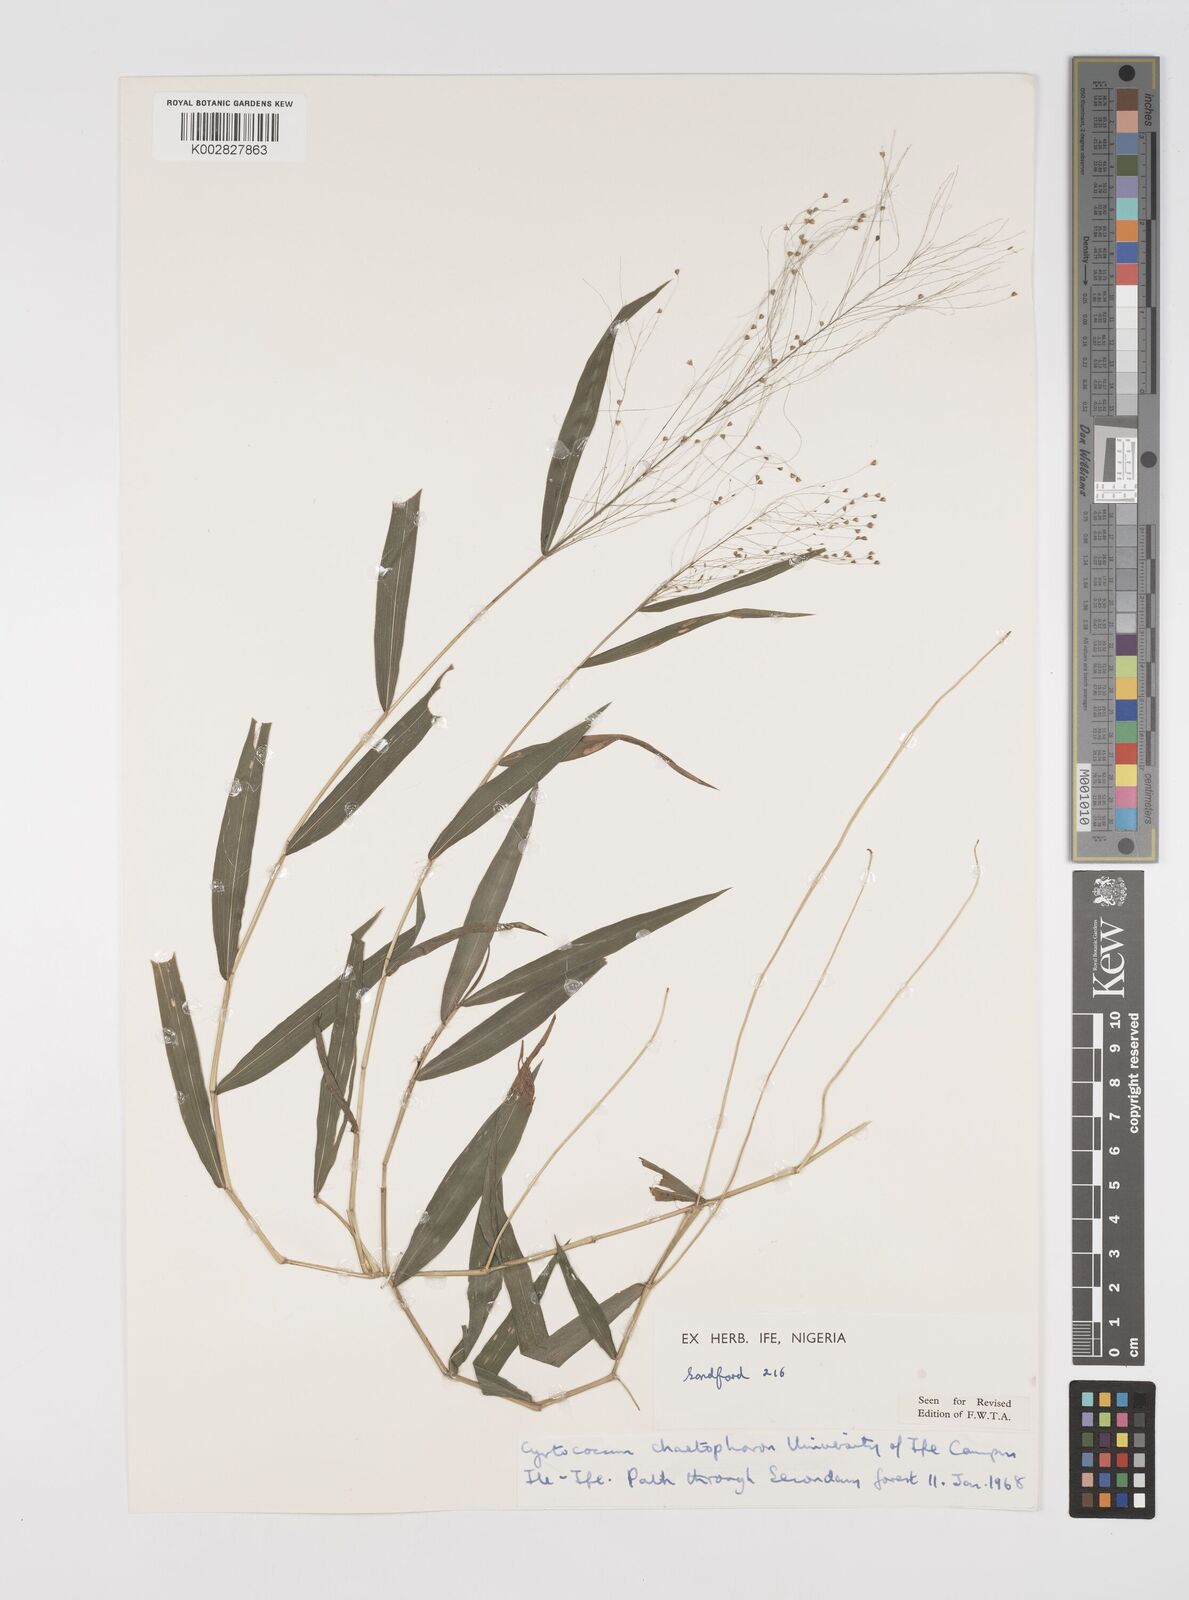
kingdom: Plantae
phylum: Tracheophyta
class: Liliopsida
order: Poales
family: Poaceae
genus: Cyrtococcum
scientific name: Cyrtococcum chaetophoron
